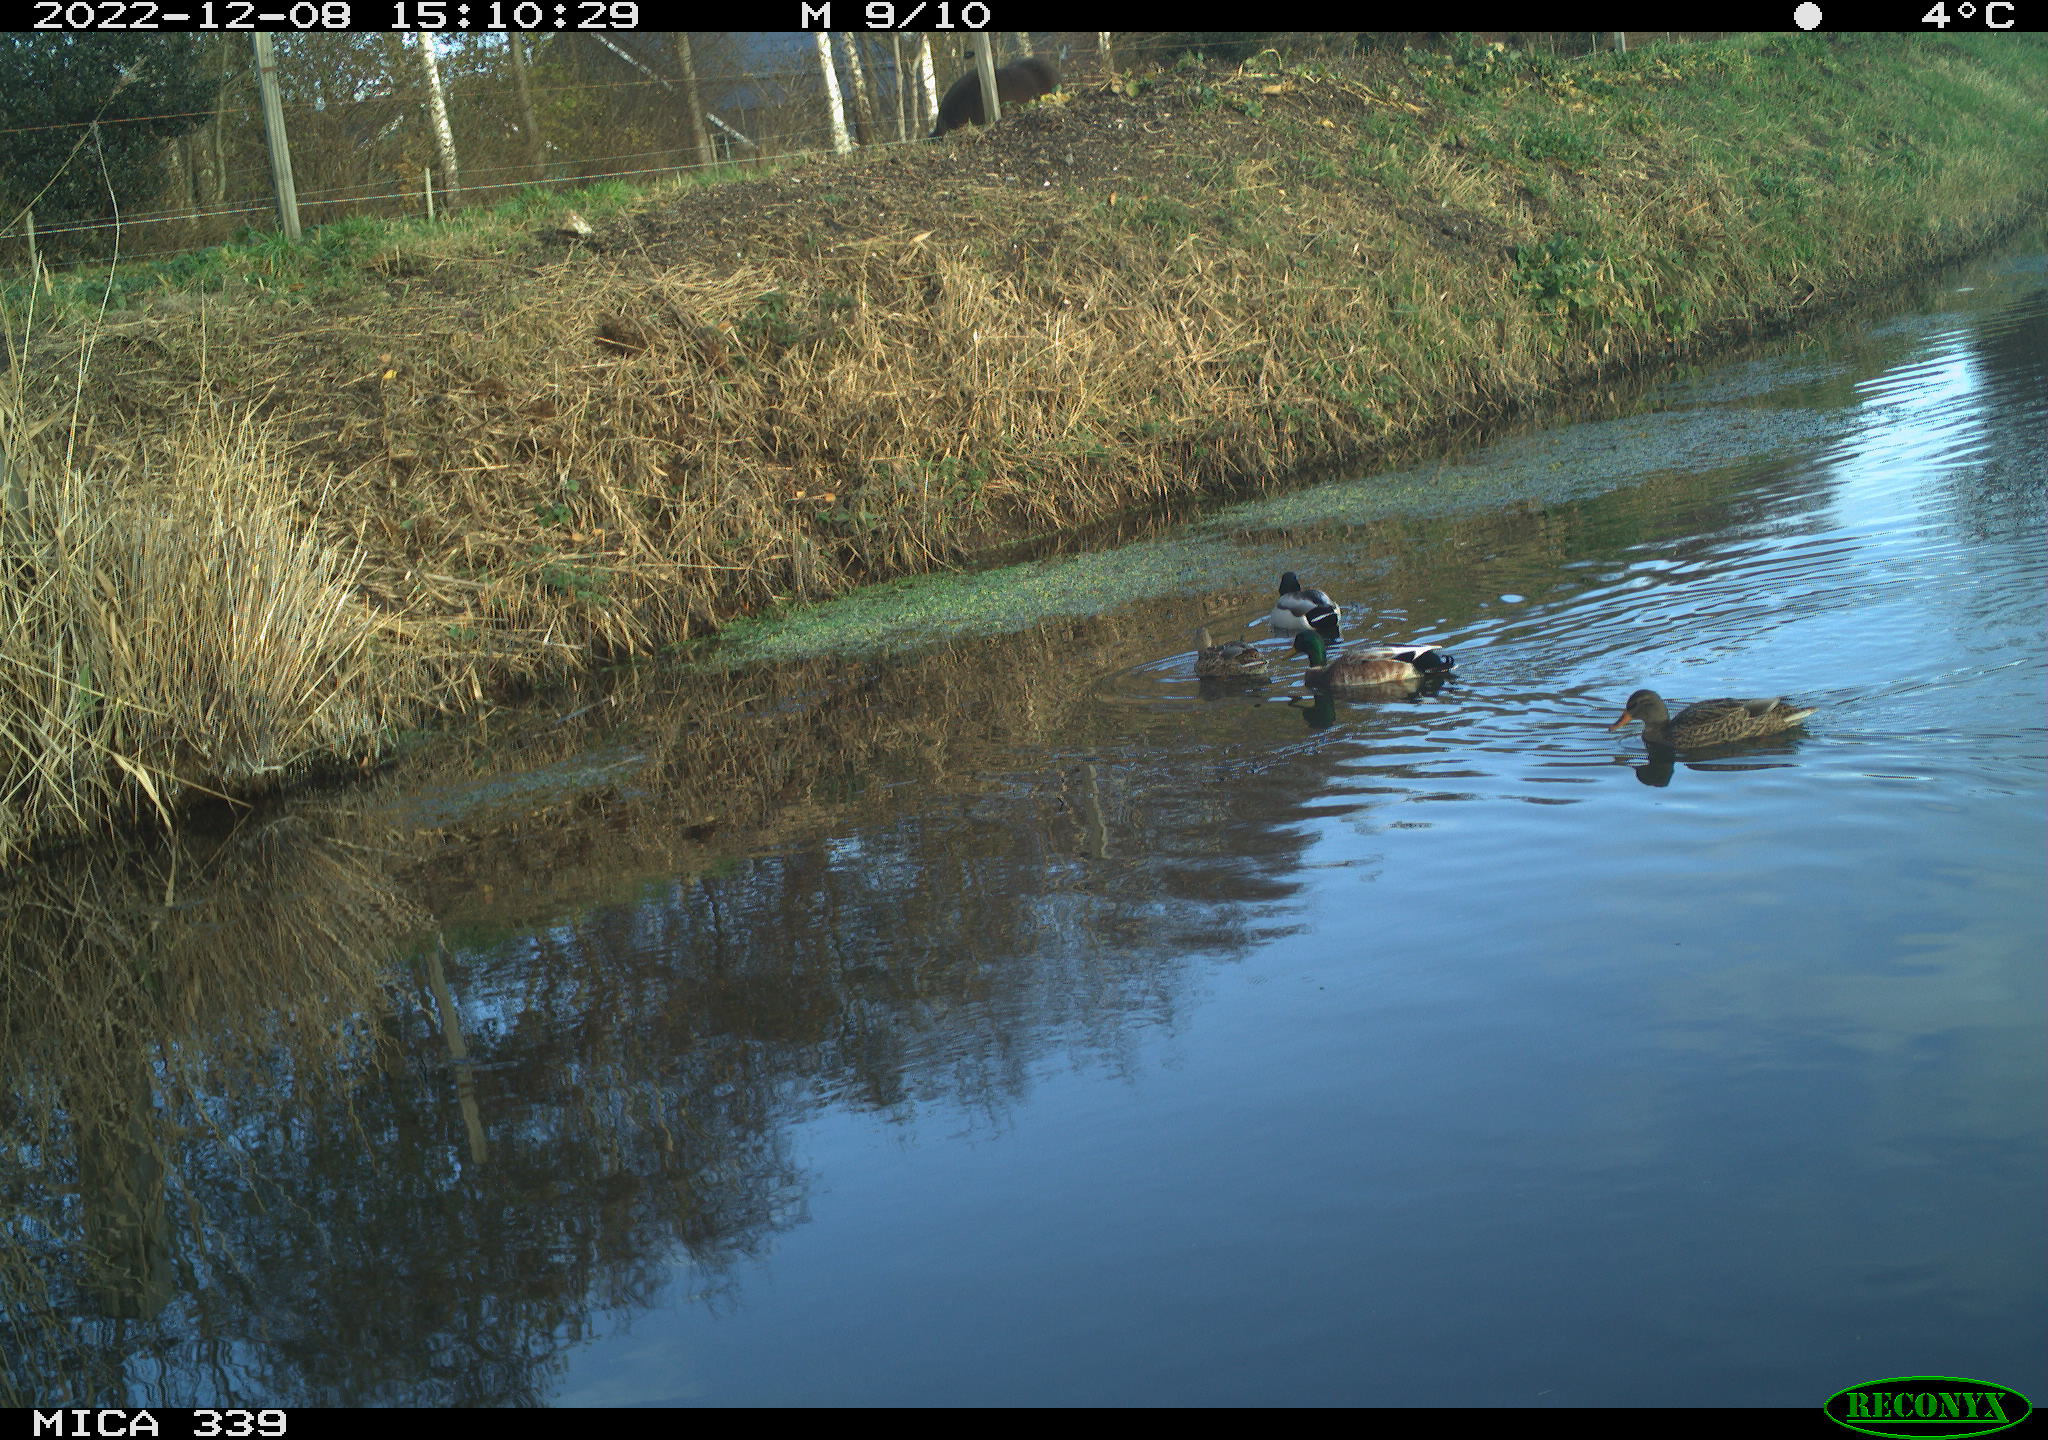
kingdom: Animalia
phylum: Chordata
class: Aves
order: Anseriformes
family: Anatidae
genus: Anas
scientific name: Anas
